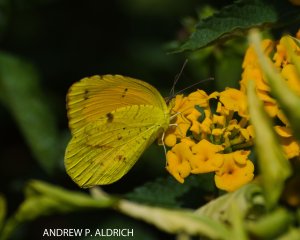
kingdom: Animalia
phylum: Arthropoda
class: Insecta
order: Lepidoptera
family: Pieridae
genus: Abaeis
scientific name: Abaeis nicippe
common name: Sleepy Orange
